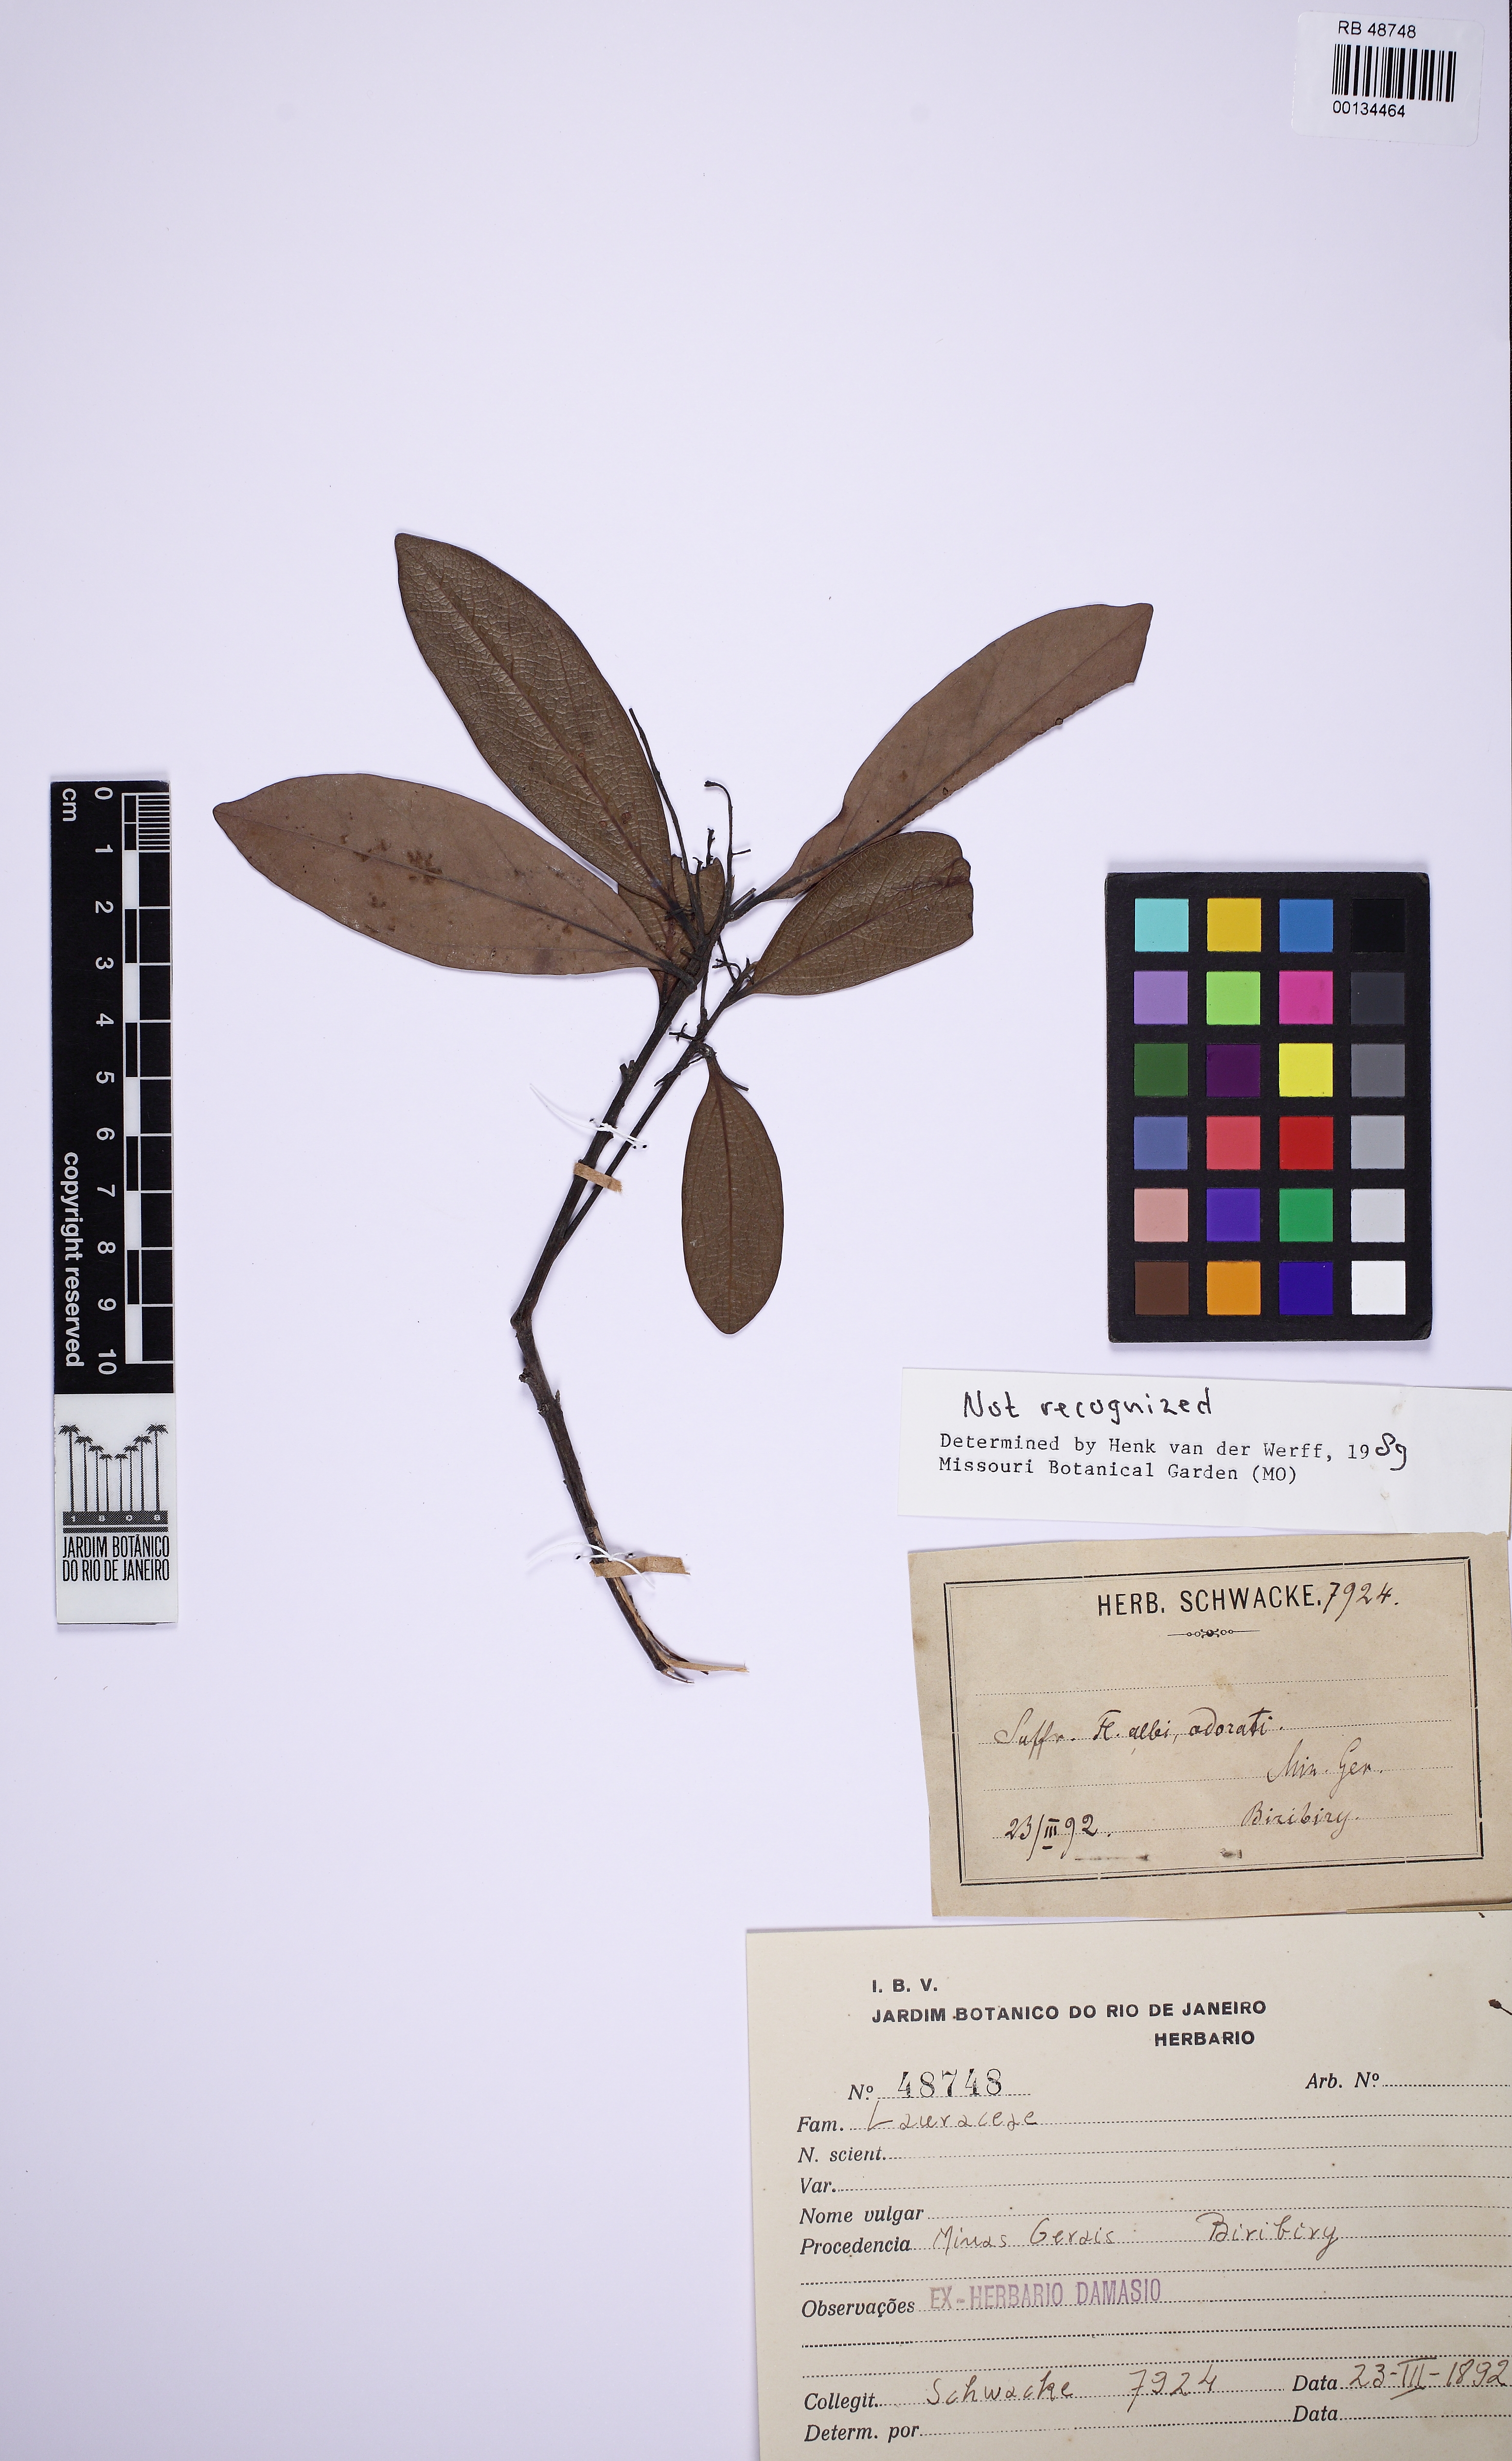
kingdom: Plantae
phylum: Tracheophyta
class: Magnoliopsida
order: Laurales
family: Lauraceae
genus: Mespilodaphne
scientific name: Mespilodaphne pulchella
